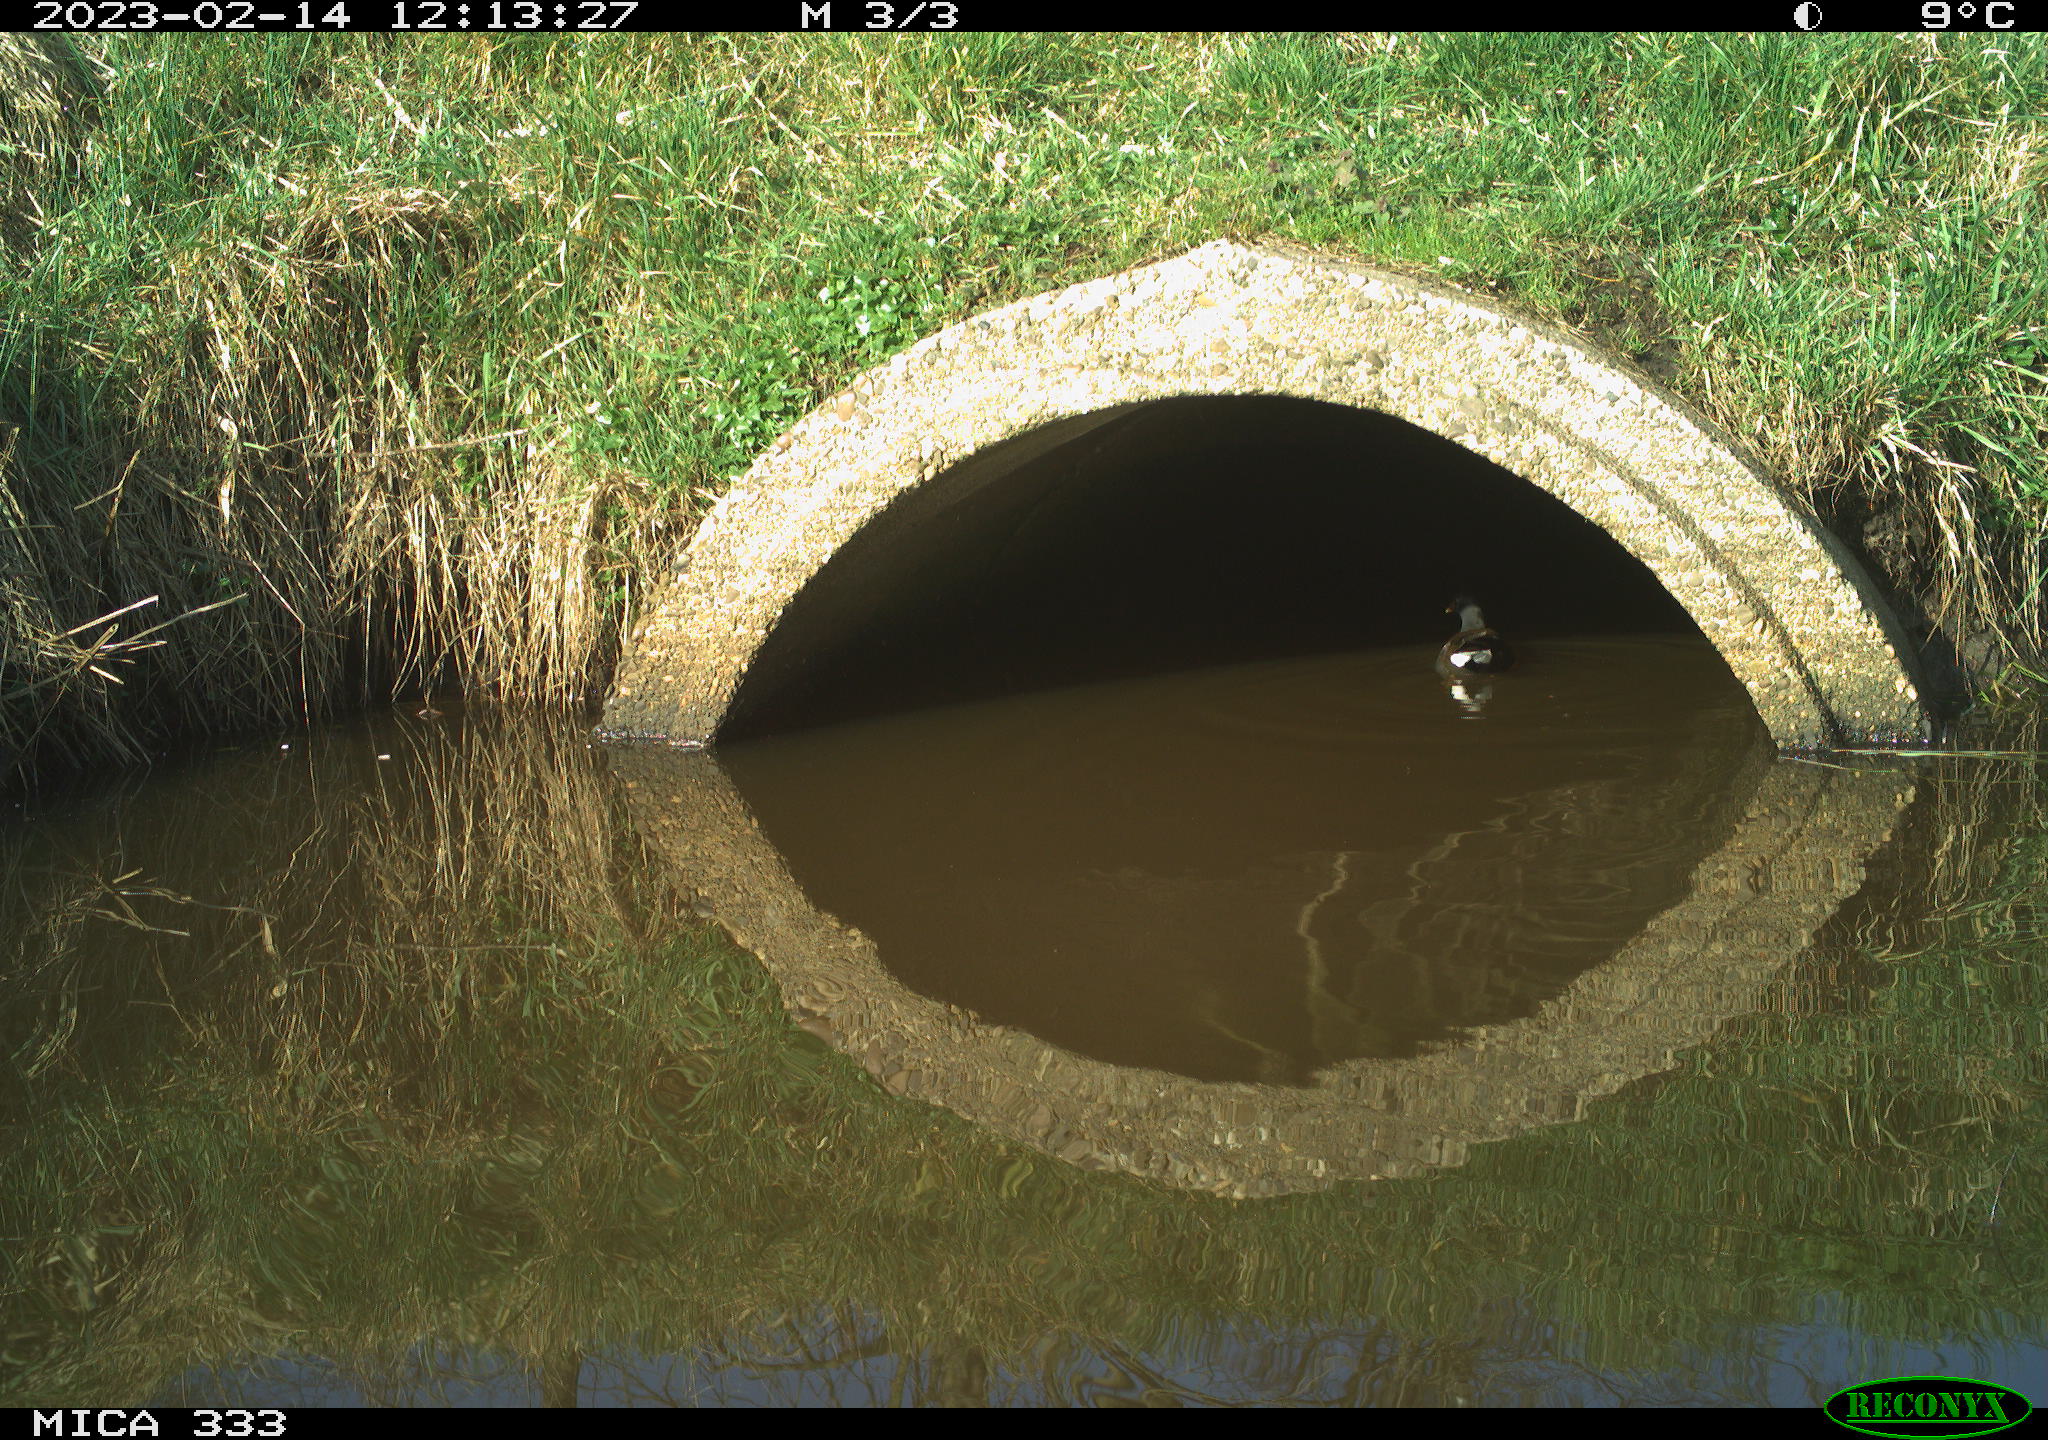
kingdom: Animalia
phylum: Chordata
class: Aves
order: Gruiformes
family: Rallidae
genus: Gallinula
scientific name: Gallinula chloropus
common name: Common moorhen
